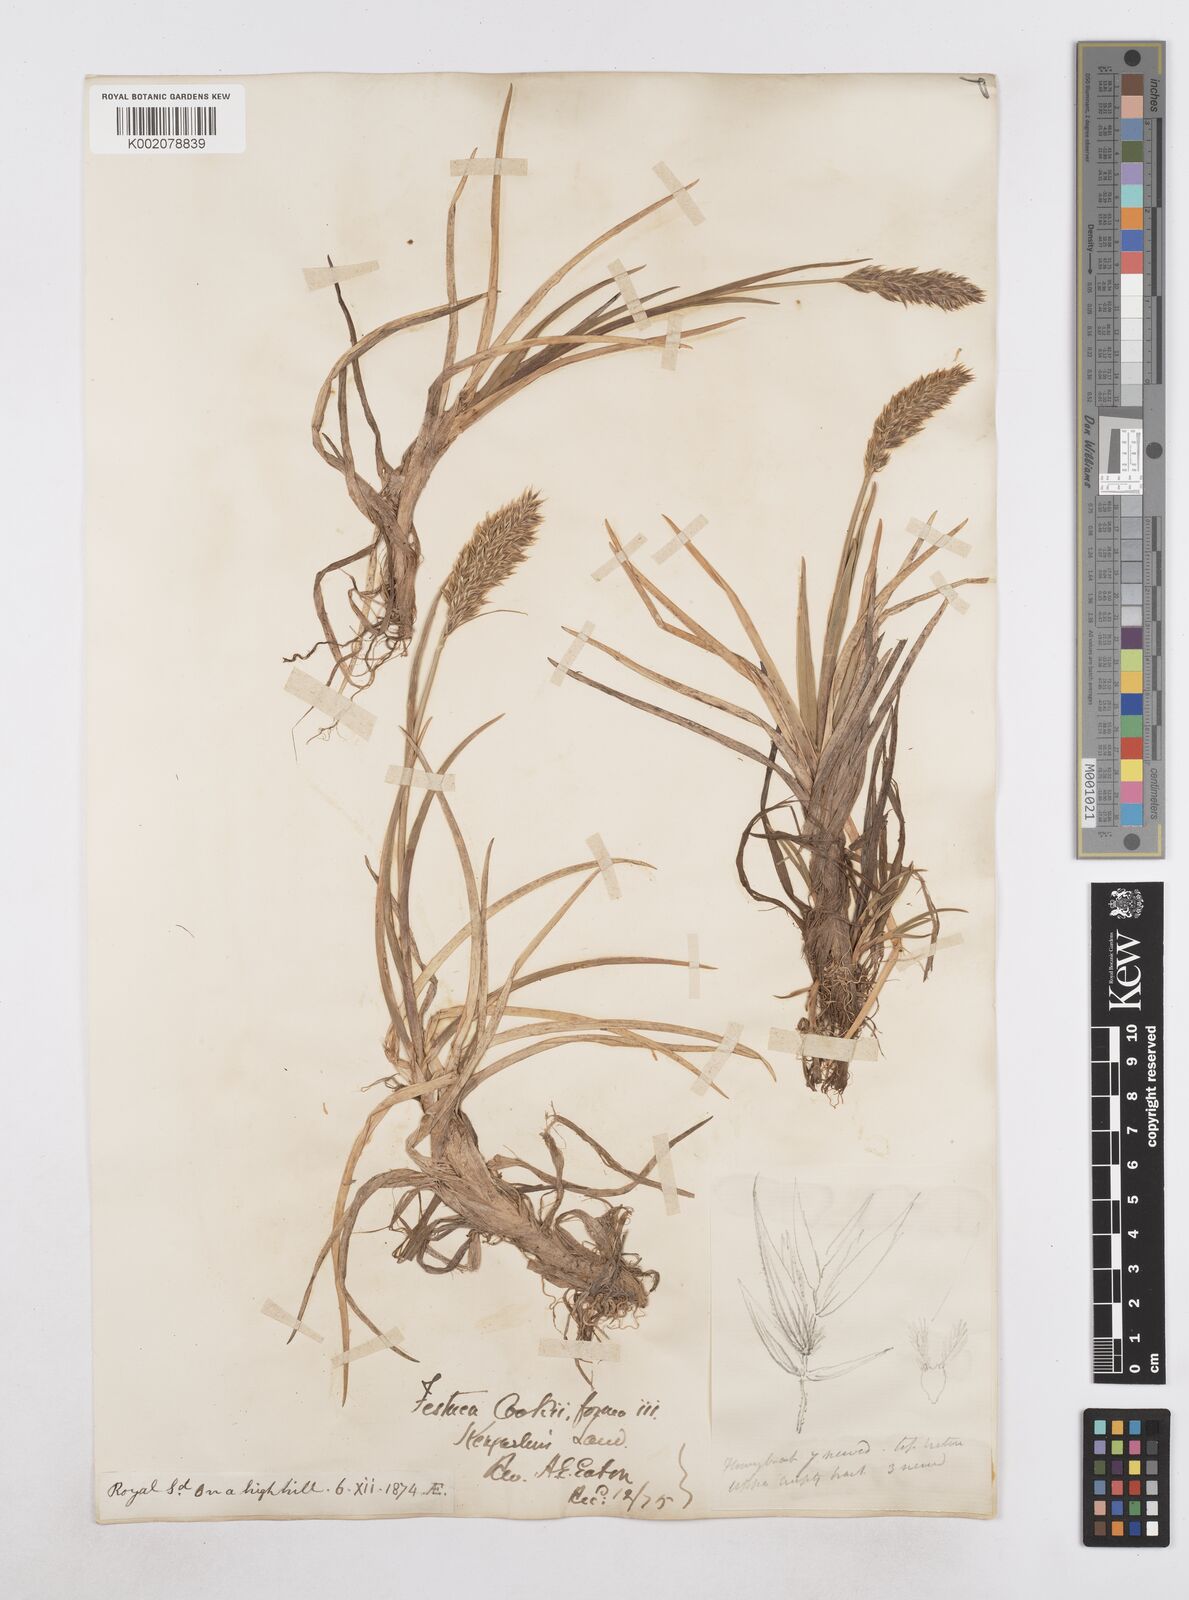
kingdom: Plantae
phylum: Tracheophyta
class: Liliopsida
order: Poales
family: Poaceae
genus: Poa
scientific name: Poa cookii
